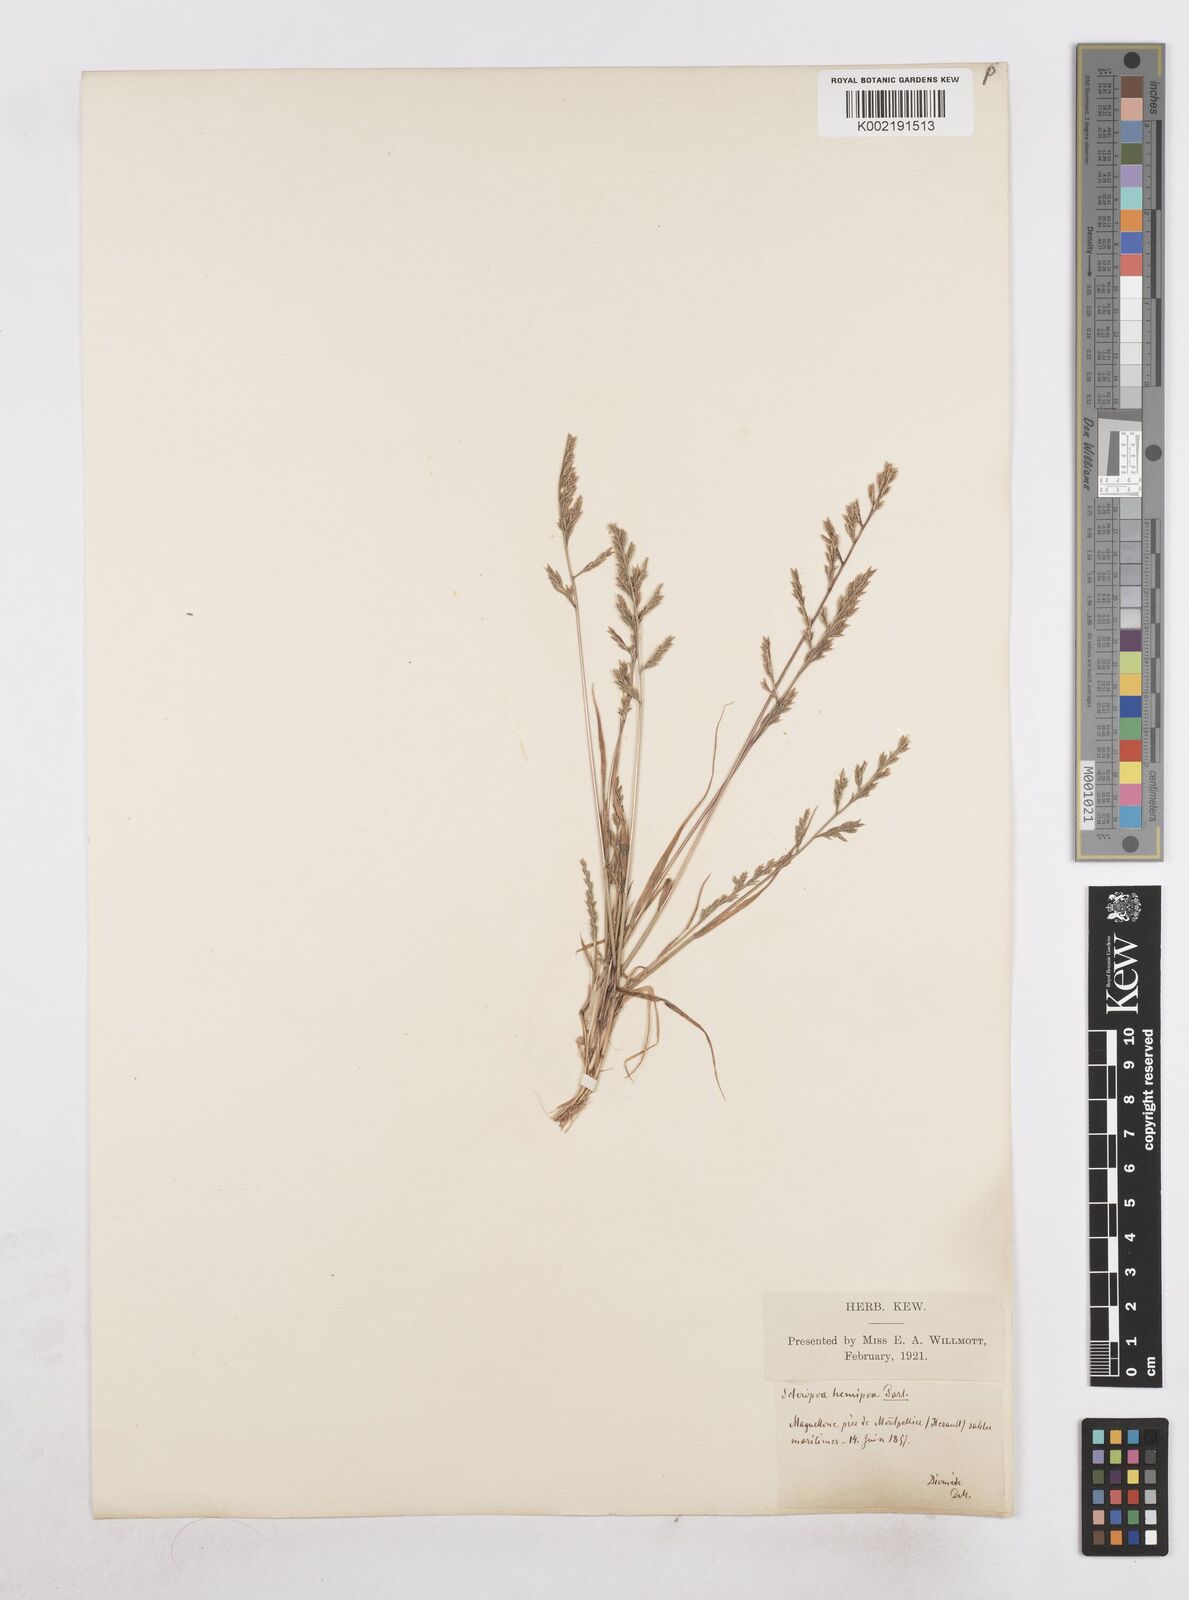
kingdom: Plantae
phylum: Tracheophyta
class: Liliopsida
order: Poales
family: Poaceae
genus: Catapodium
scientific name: Catapodium hemipoa
